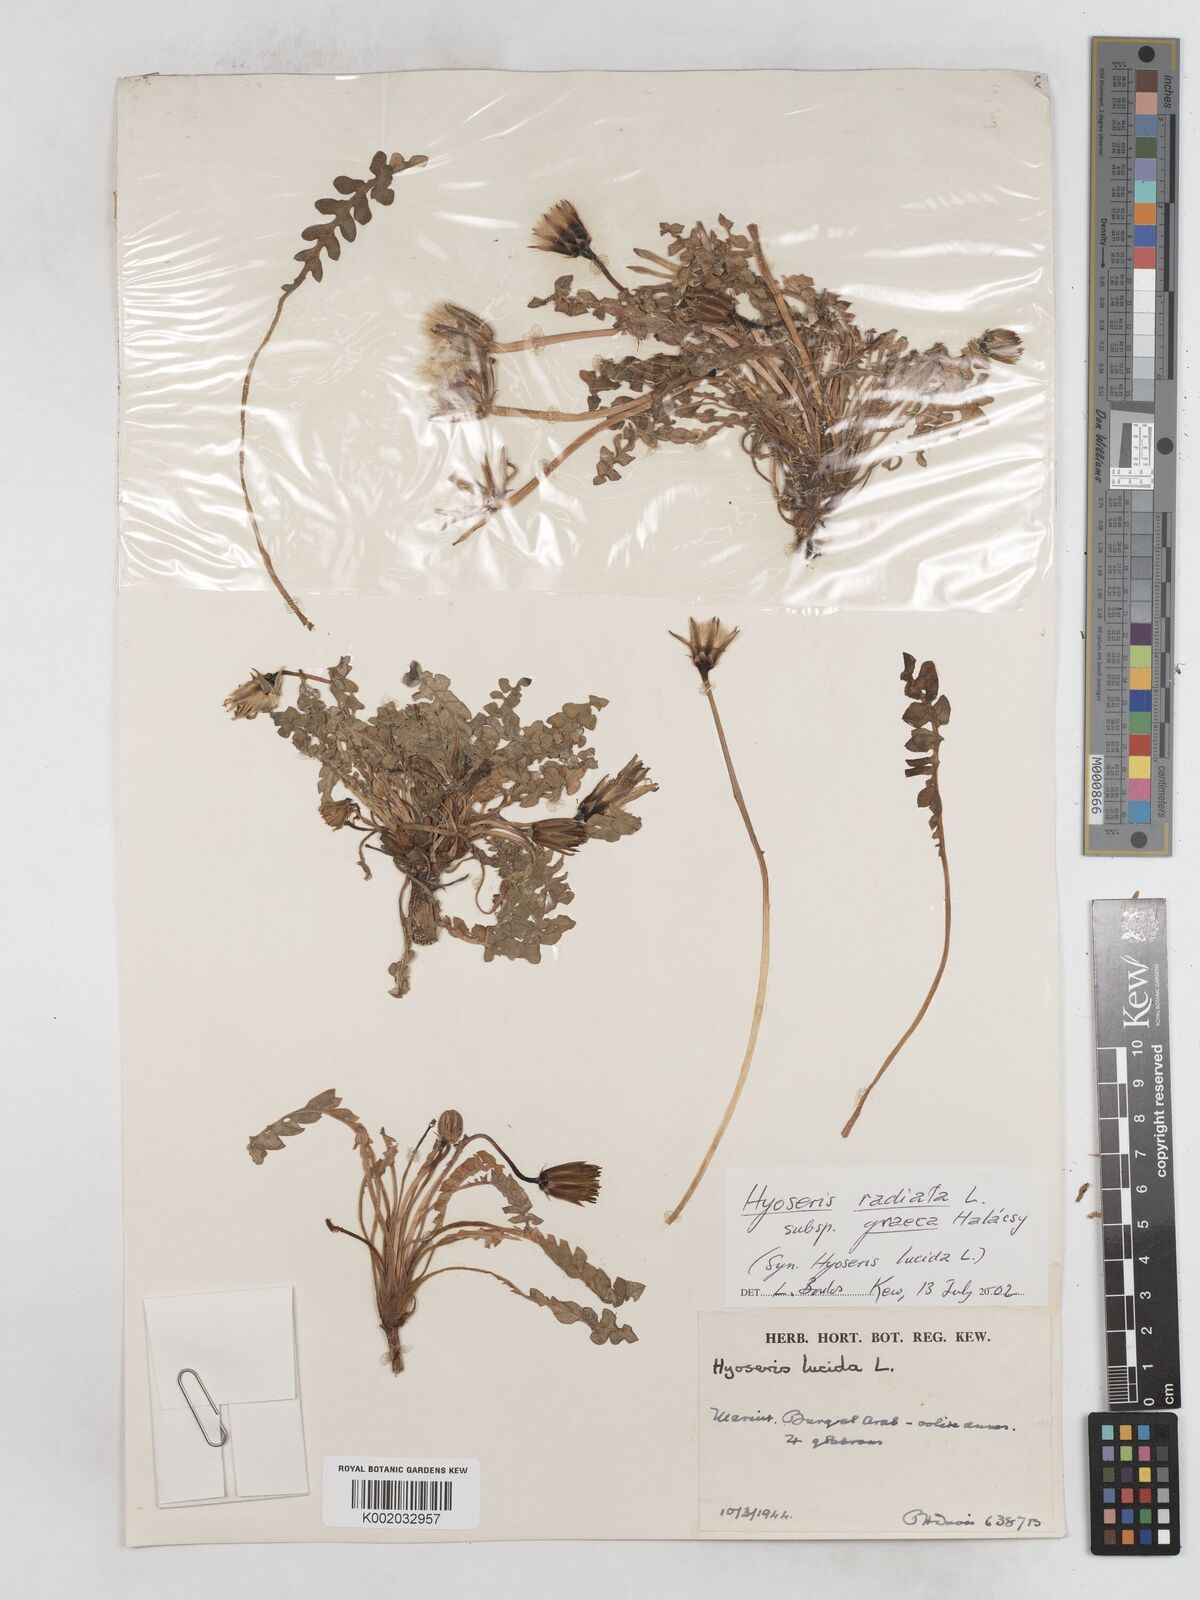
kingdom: Plantae
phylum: Tracheophyta
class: Magnoliopsida
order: Asterales
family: Asteraceae
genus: Hyoseris
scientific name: Hyoseris lucida
